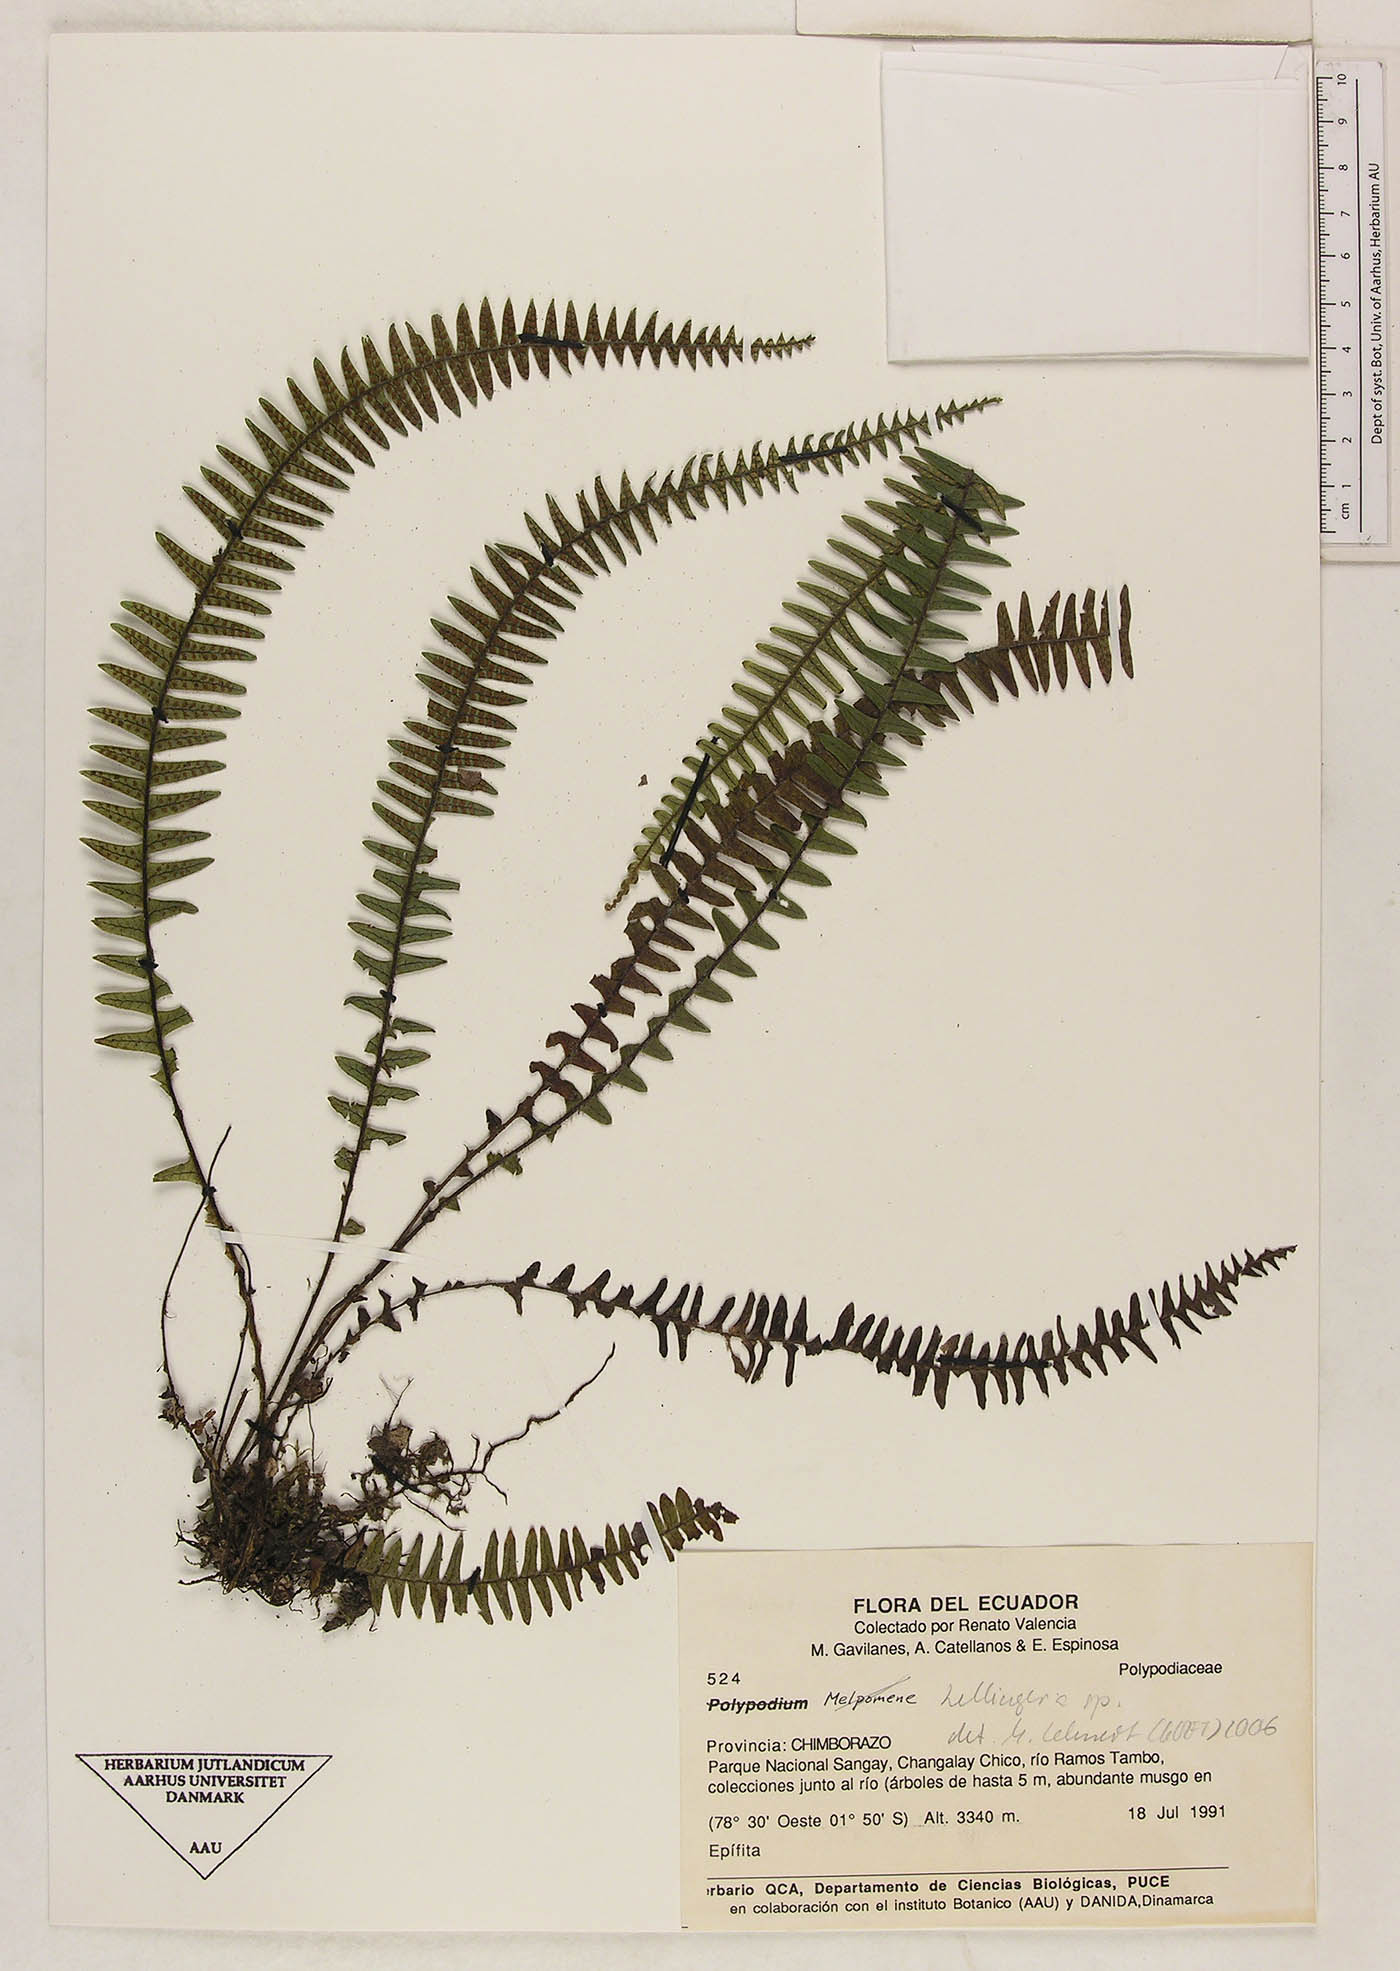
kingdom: Plantae
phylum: Tracheophyta
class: Polypodiopsida
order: Polypodiales
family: Polypodiaceae
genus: Ascogrammitis
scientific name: Ascogrammitis pichinchae
